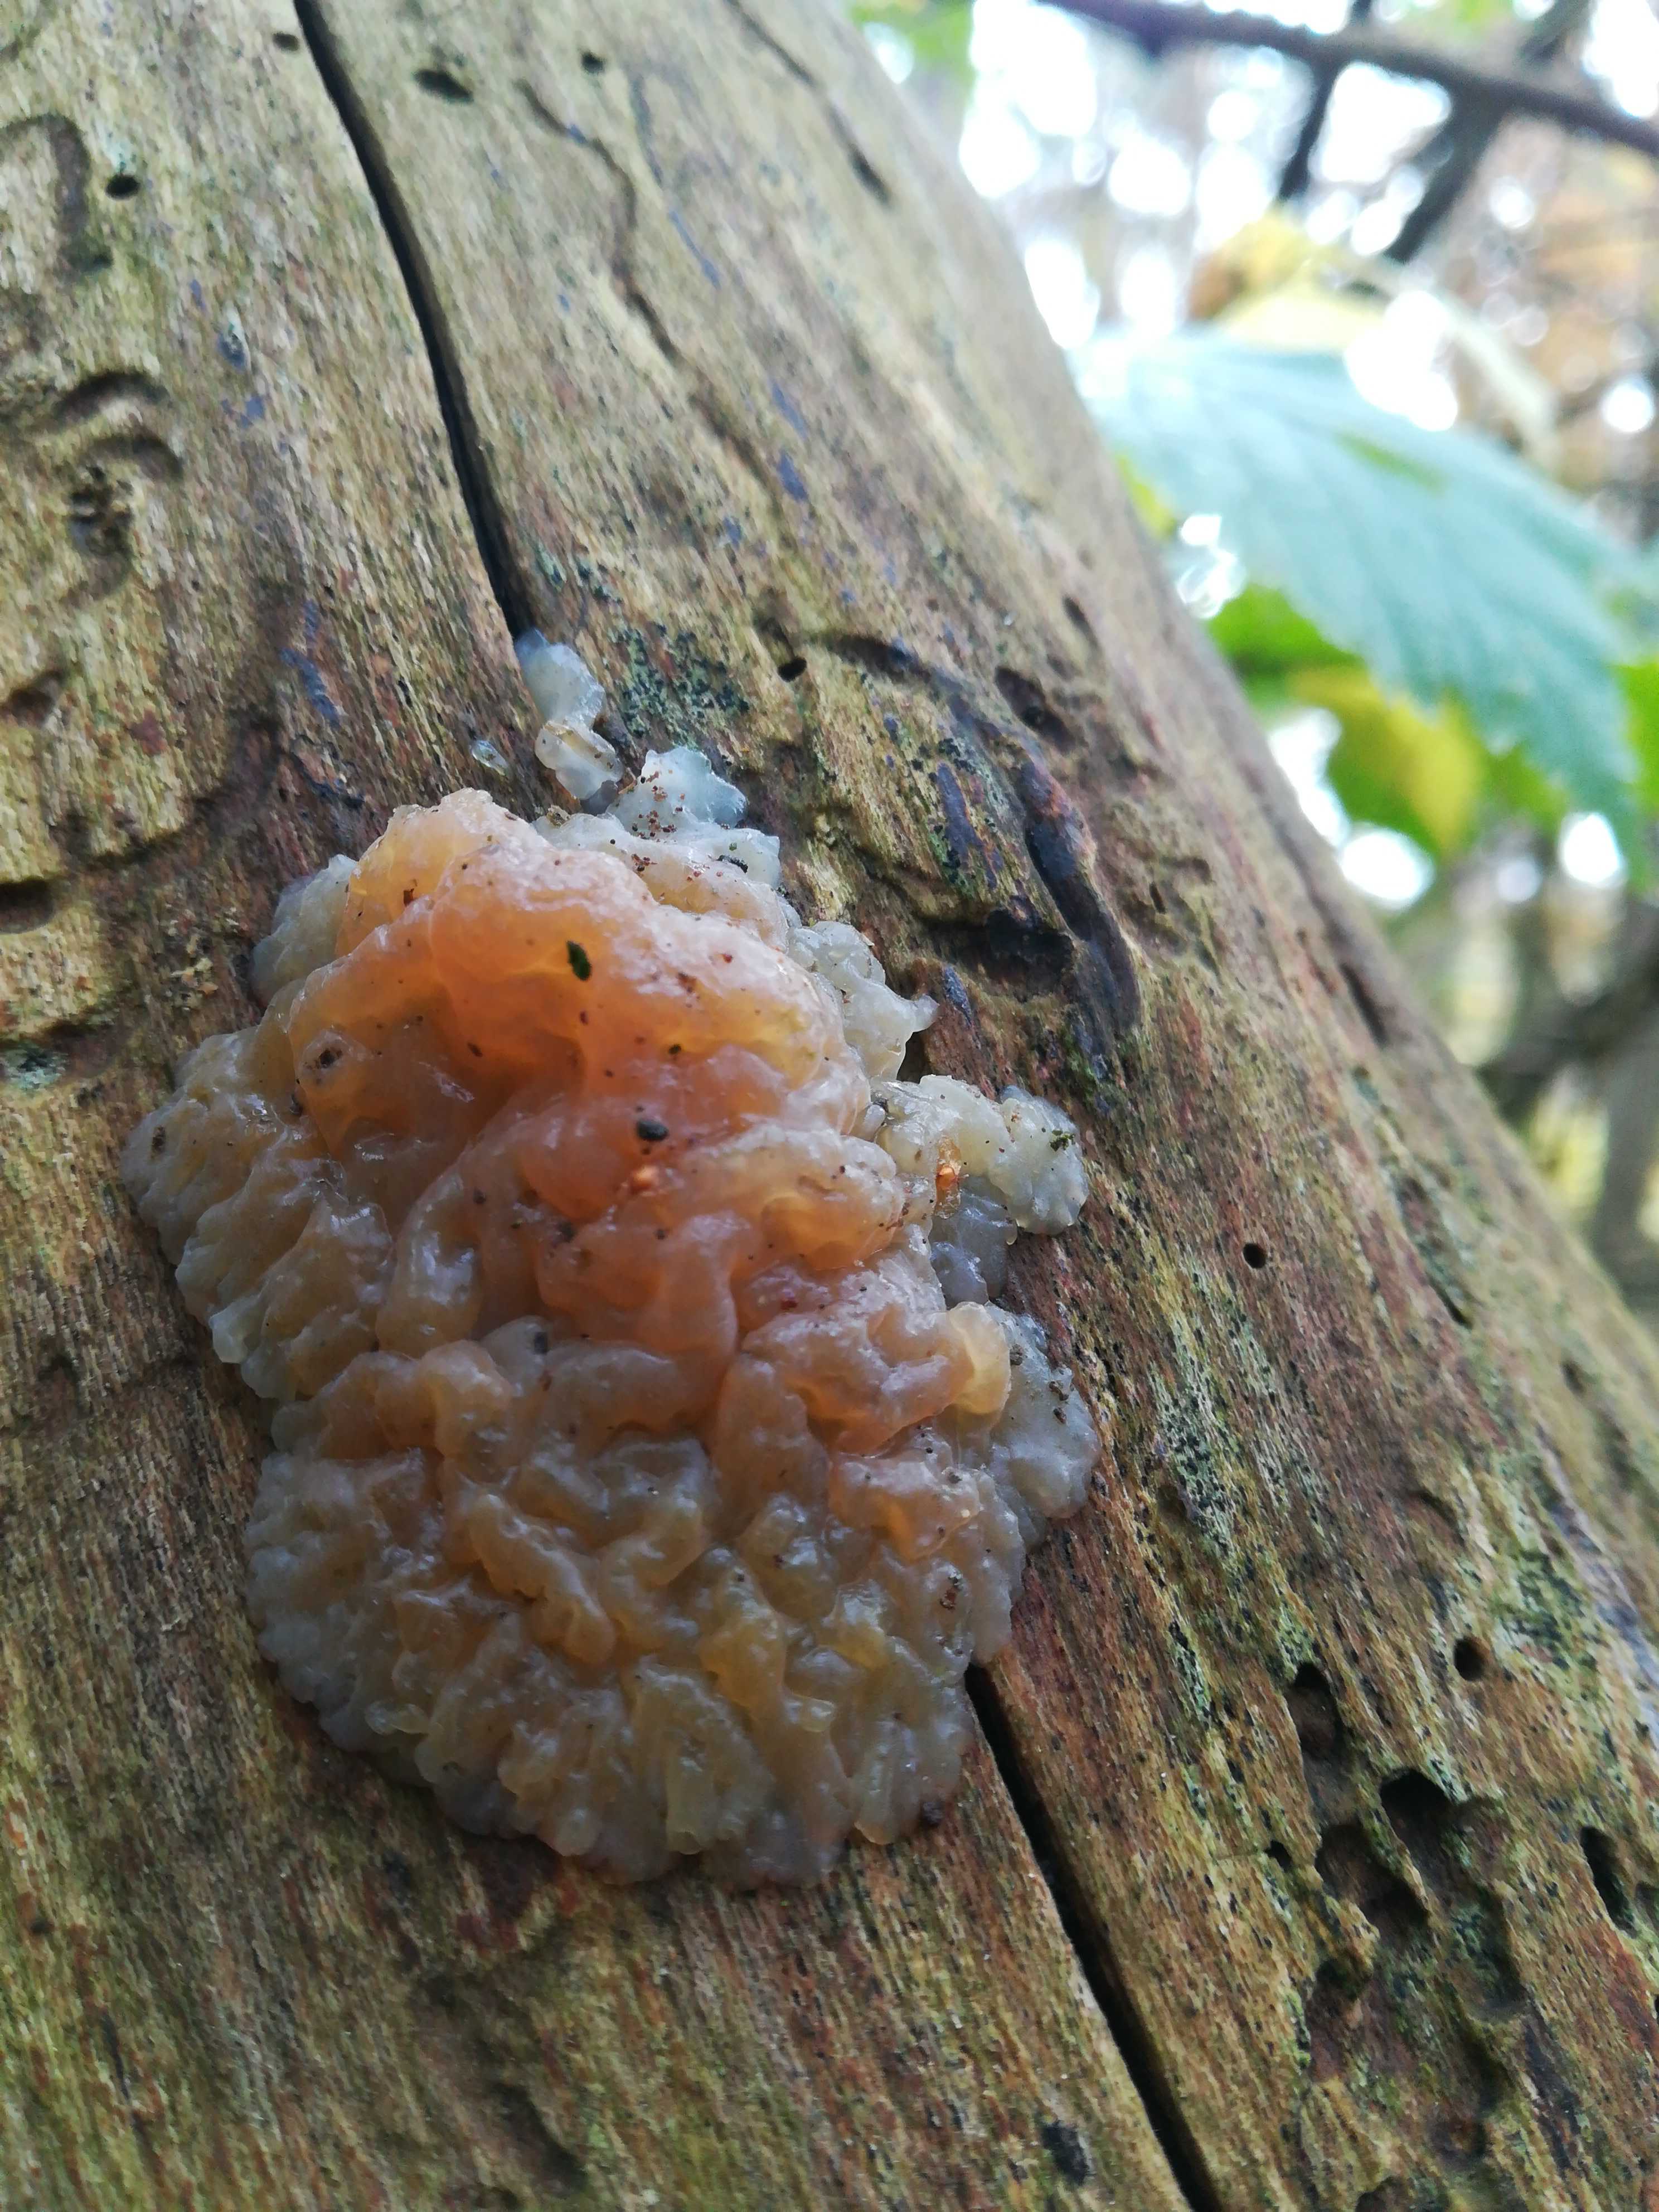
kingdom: Fungi
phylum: Basidiomycota
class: Tremellomycetes
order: Tremellales
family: Exidiaceae
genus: Exidia
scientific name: Exidia
